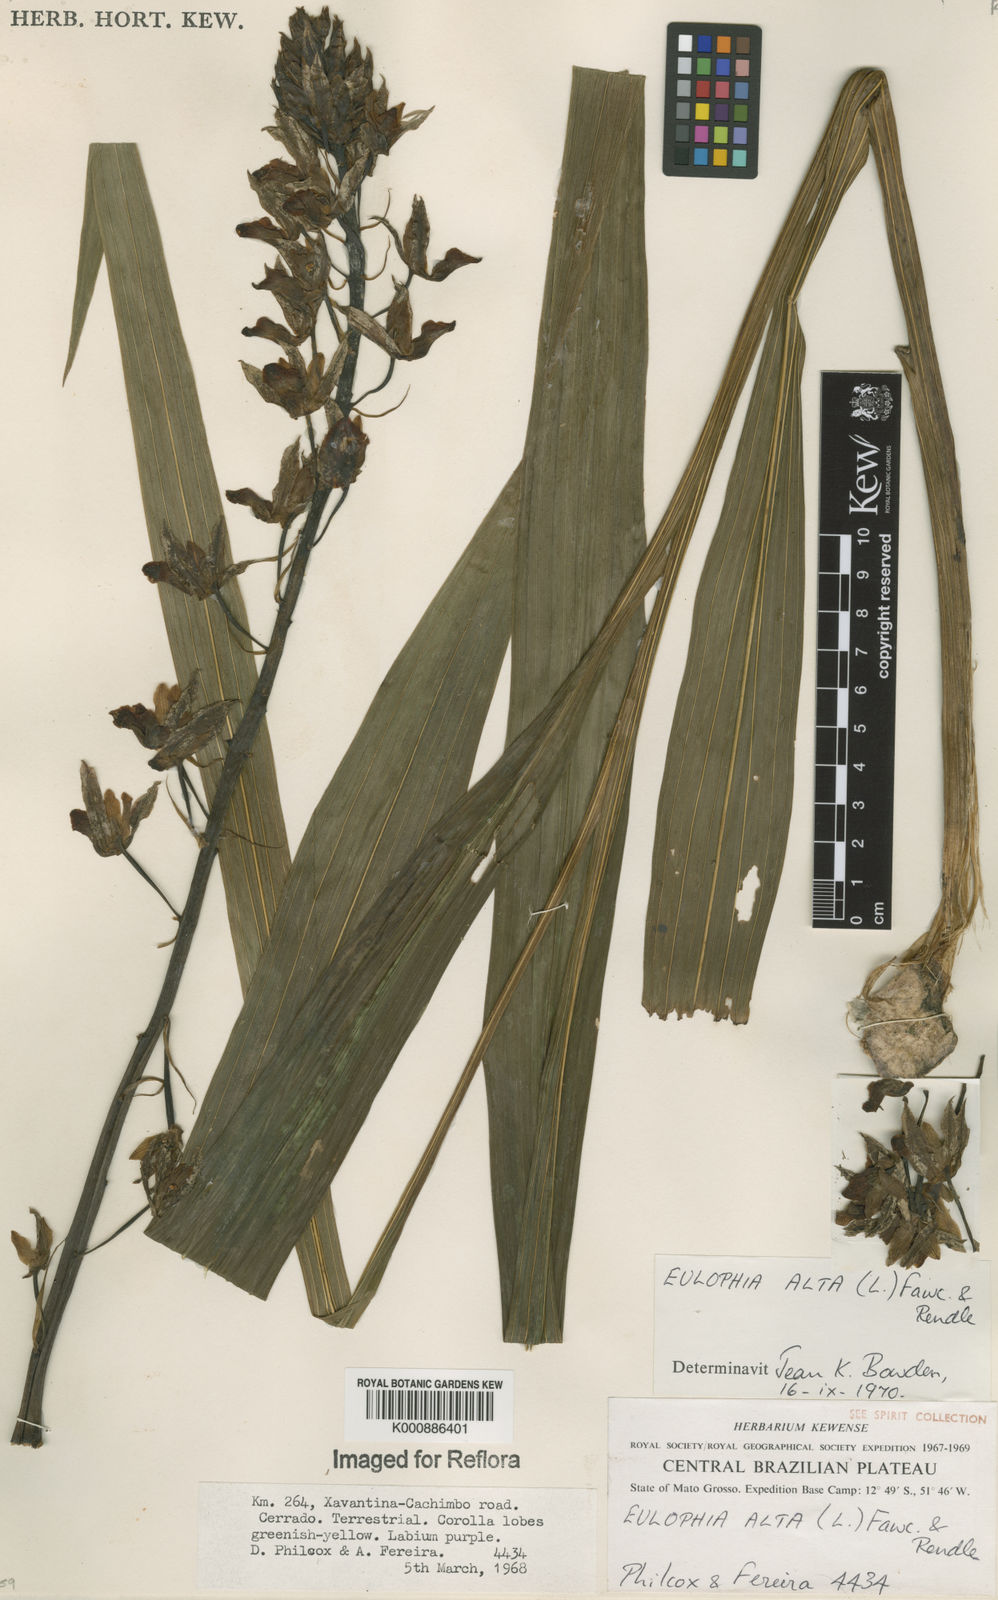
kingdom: Plantae
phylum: Tracheophyta
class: Liliopsida
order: Asparagales
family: Orchidaceae
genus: Eulophia
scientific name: Eulophia alta
